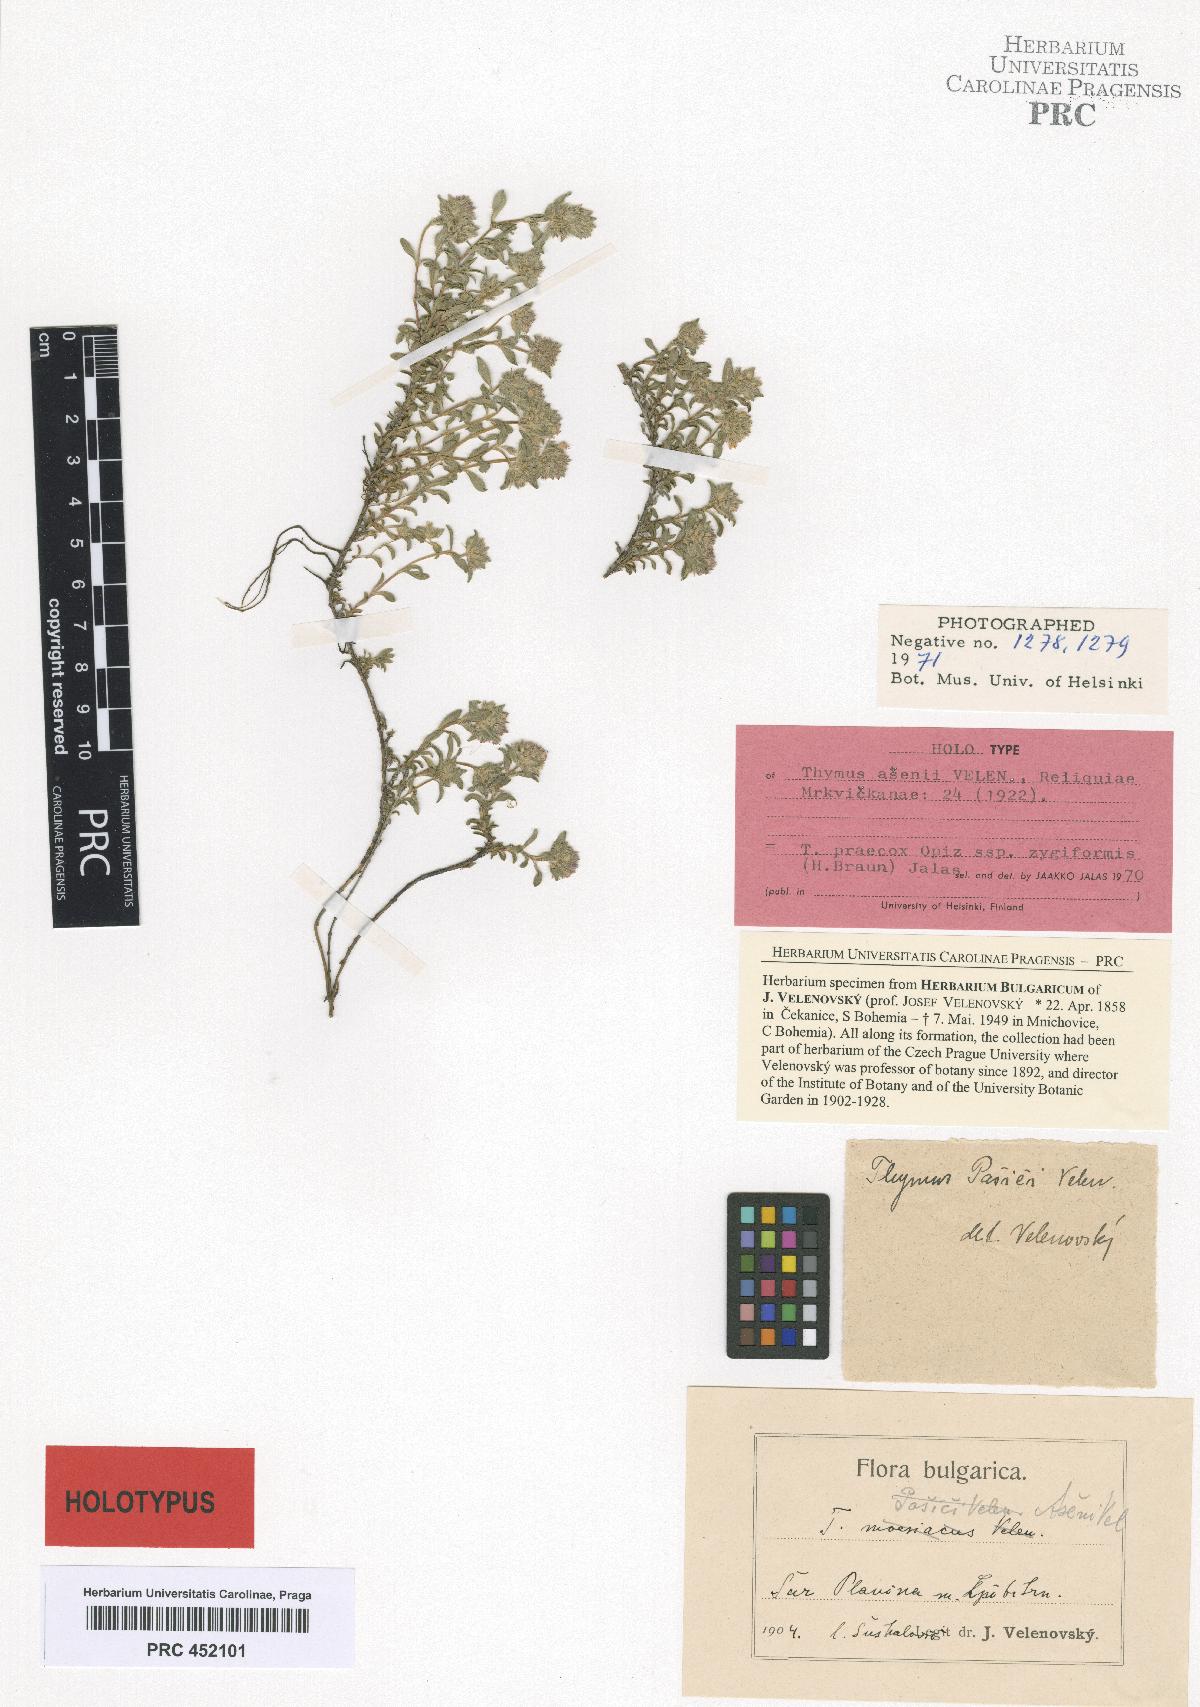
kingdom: Plantae
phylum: Tracheophyta
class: Magnoliopsida
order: Lamiales
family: Lamiaceae
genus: Thymus
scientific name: Thymus praecox
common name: Wild thyme
